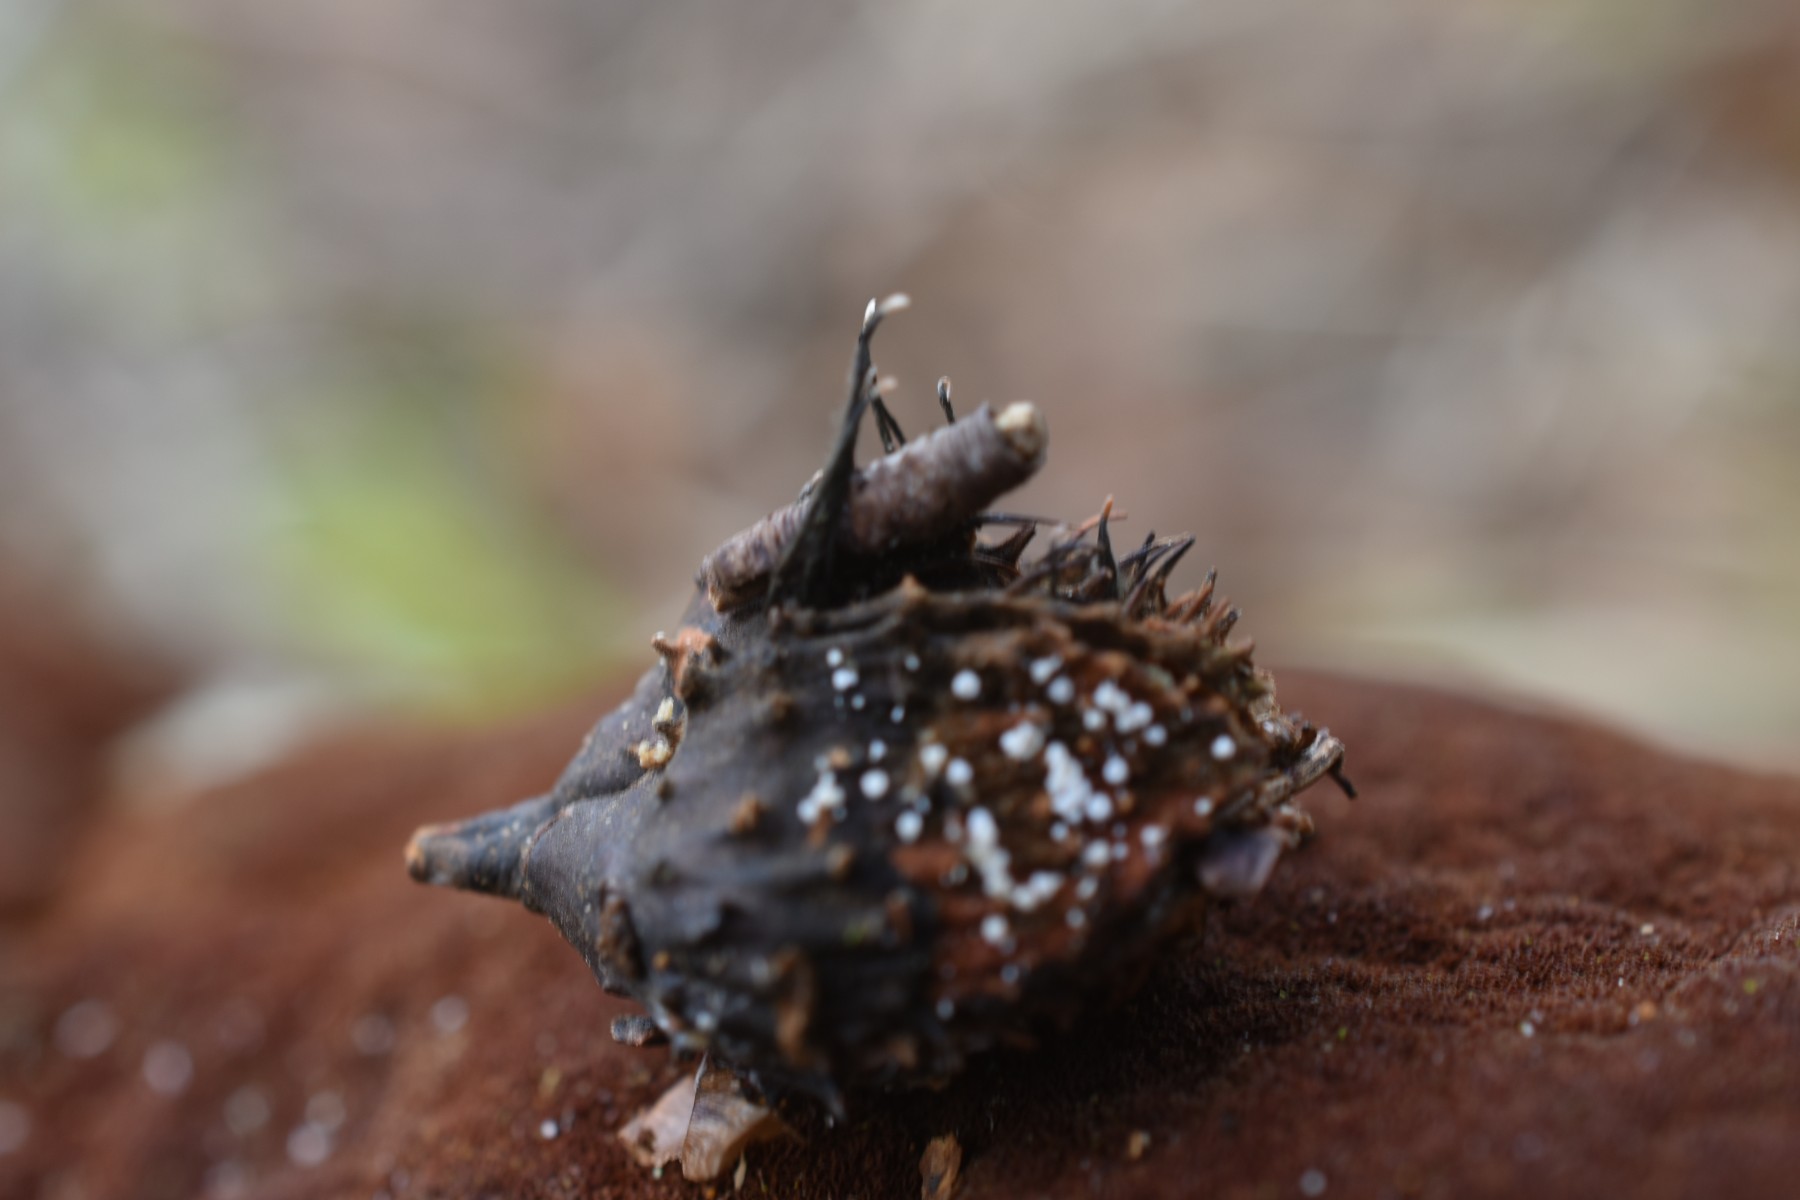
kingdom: Fungi
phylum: Ascomycota
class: Sordariomycetes
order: Xylariales
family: Xylariaceae
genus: Xylaria
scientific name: Xylaria carpophila
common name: bogskål-stødsvamp
